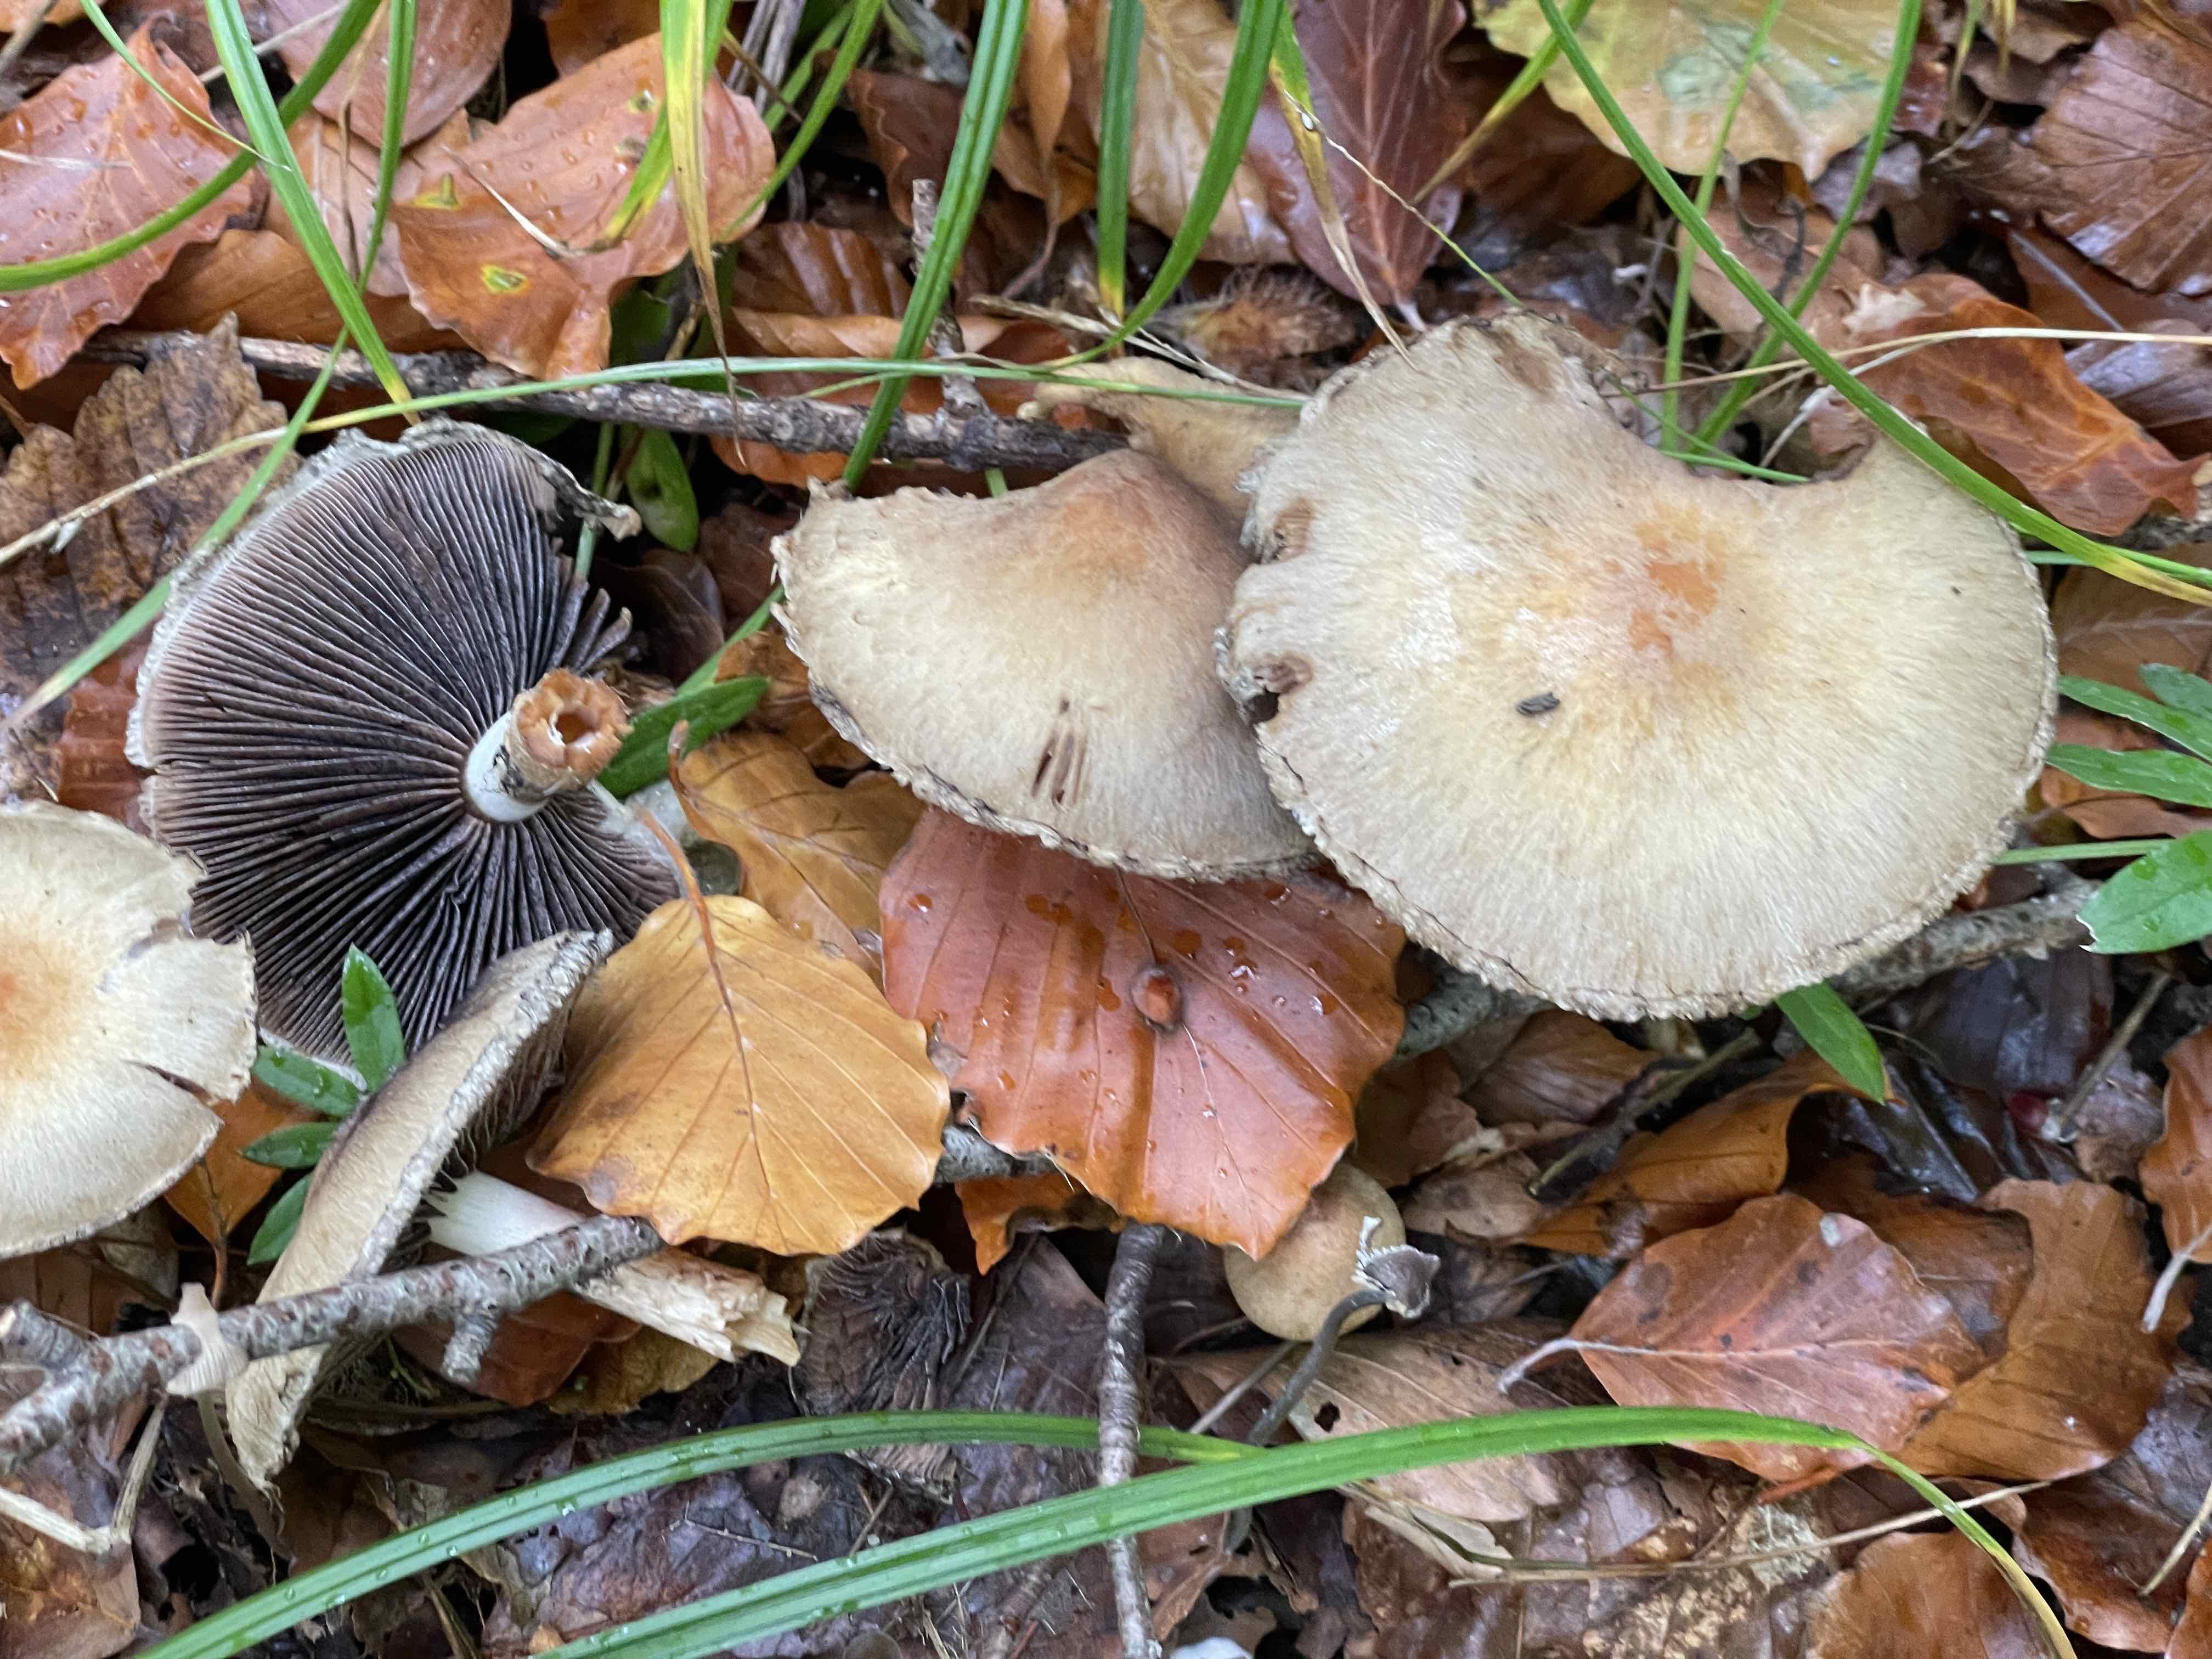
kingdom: Fungi
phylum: Basidiomycota
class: Agaricomycetes
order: Agaricales
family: Psathyrellaceae
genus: Lacrymaria
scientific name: Lacrymaria lacrymabunda
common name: grædende mørkhat
